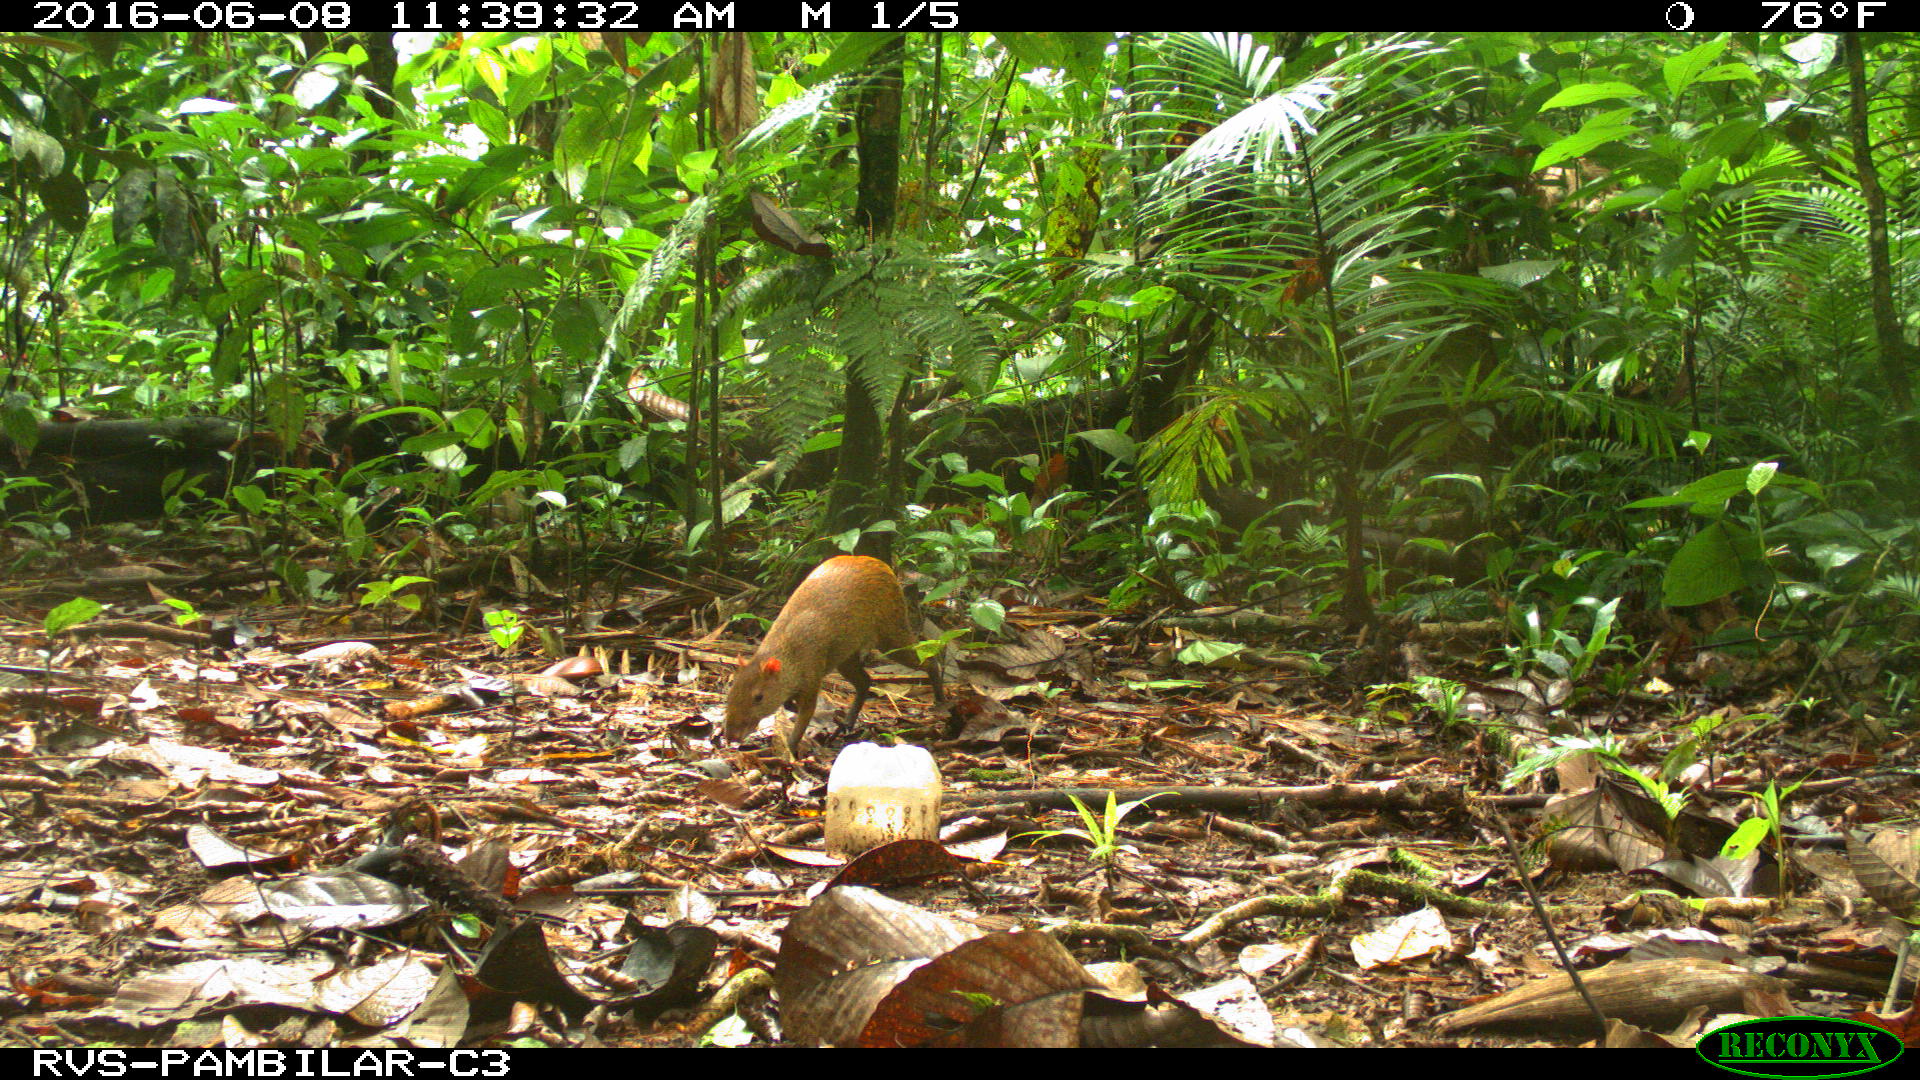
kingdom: Animalia
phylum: Chordata
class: Mammalia
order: Rodentia
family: Dasyproctidae
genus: Dasyprocta
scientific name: Dasyprocta punctata
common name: Central american agouti
